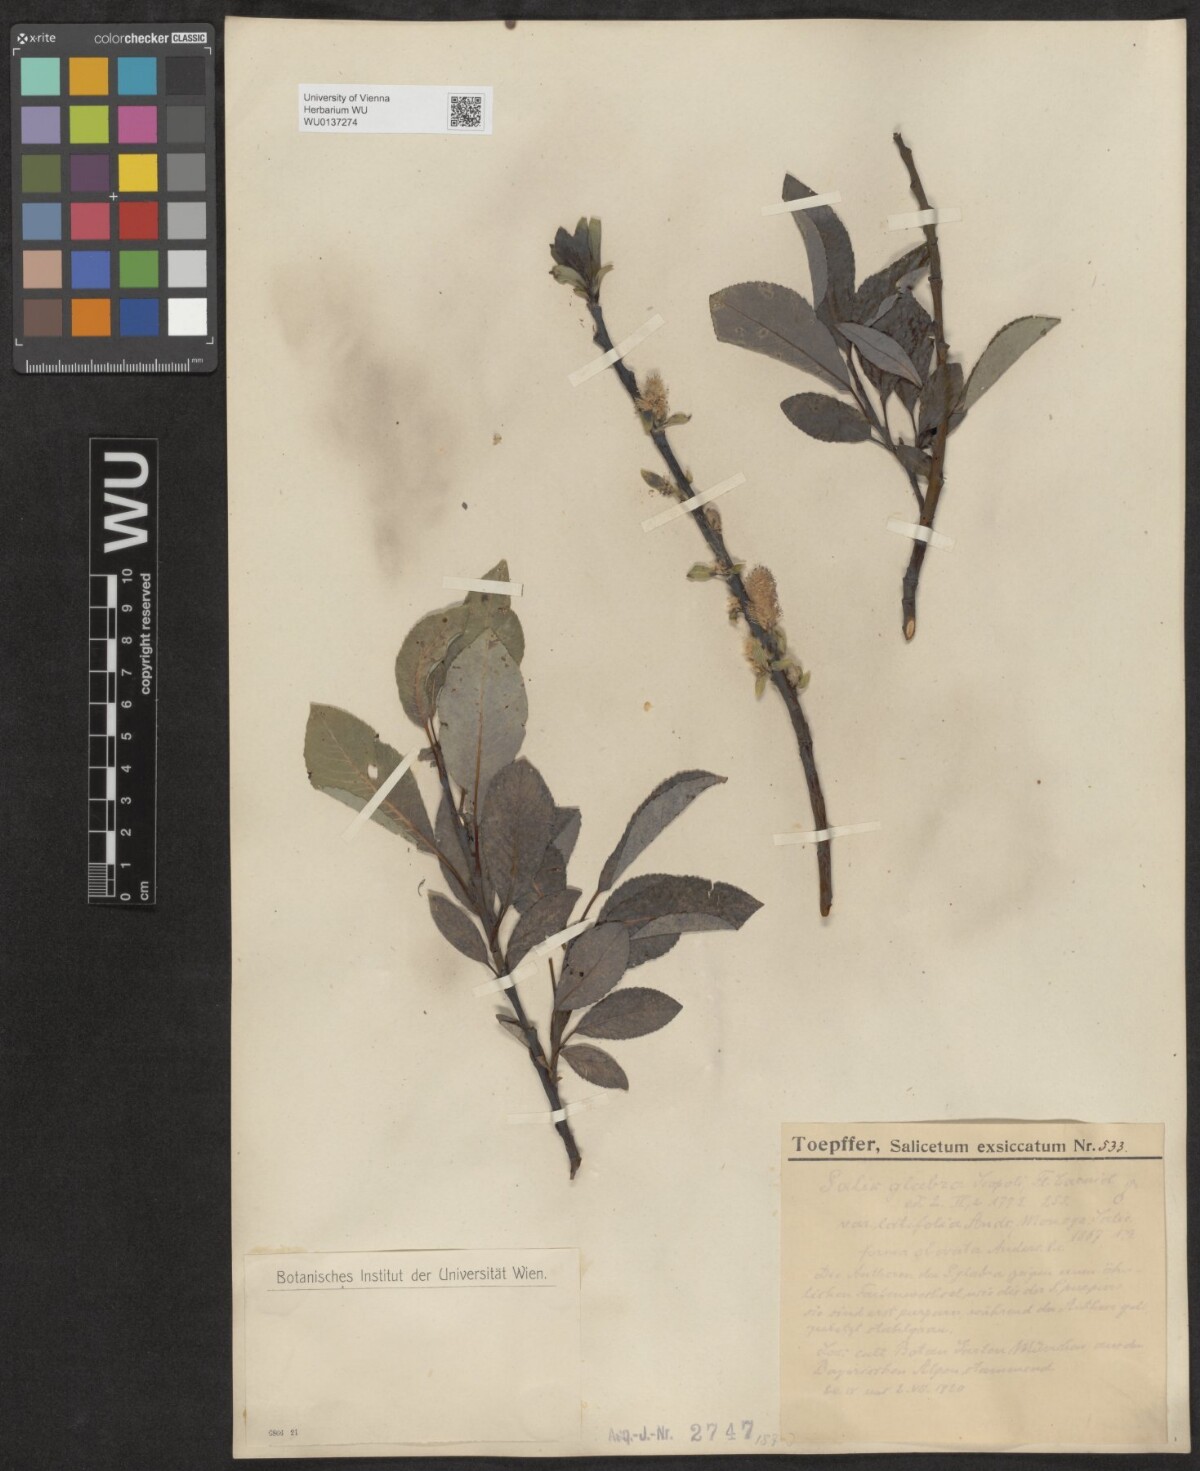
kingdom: Plantae
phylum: Tracheophyta
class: Magnoliopsida
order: Malpighiales
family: Salicaceae
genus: Salix
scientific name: Salix glabra
